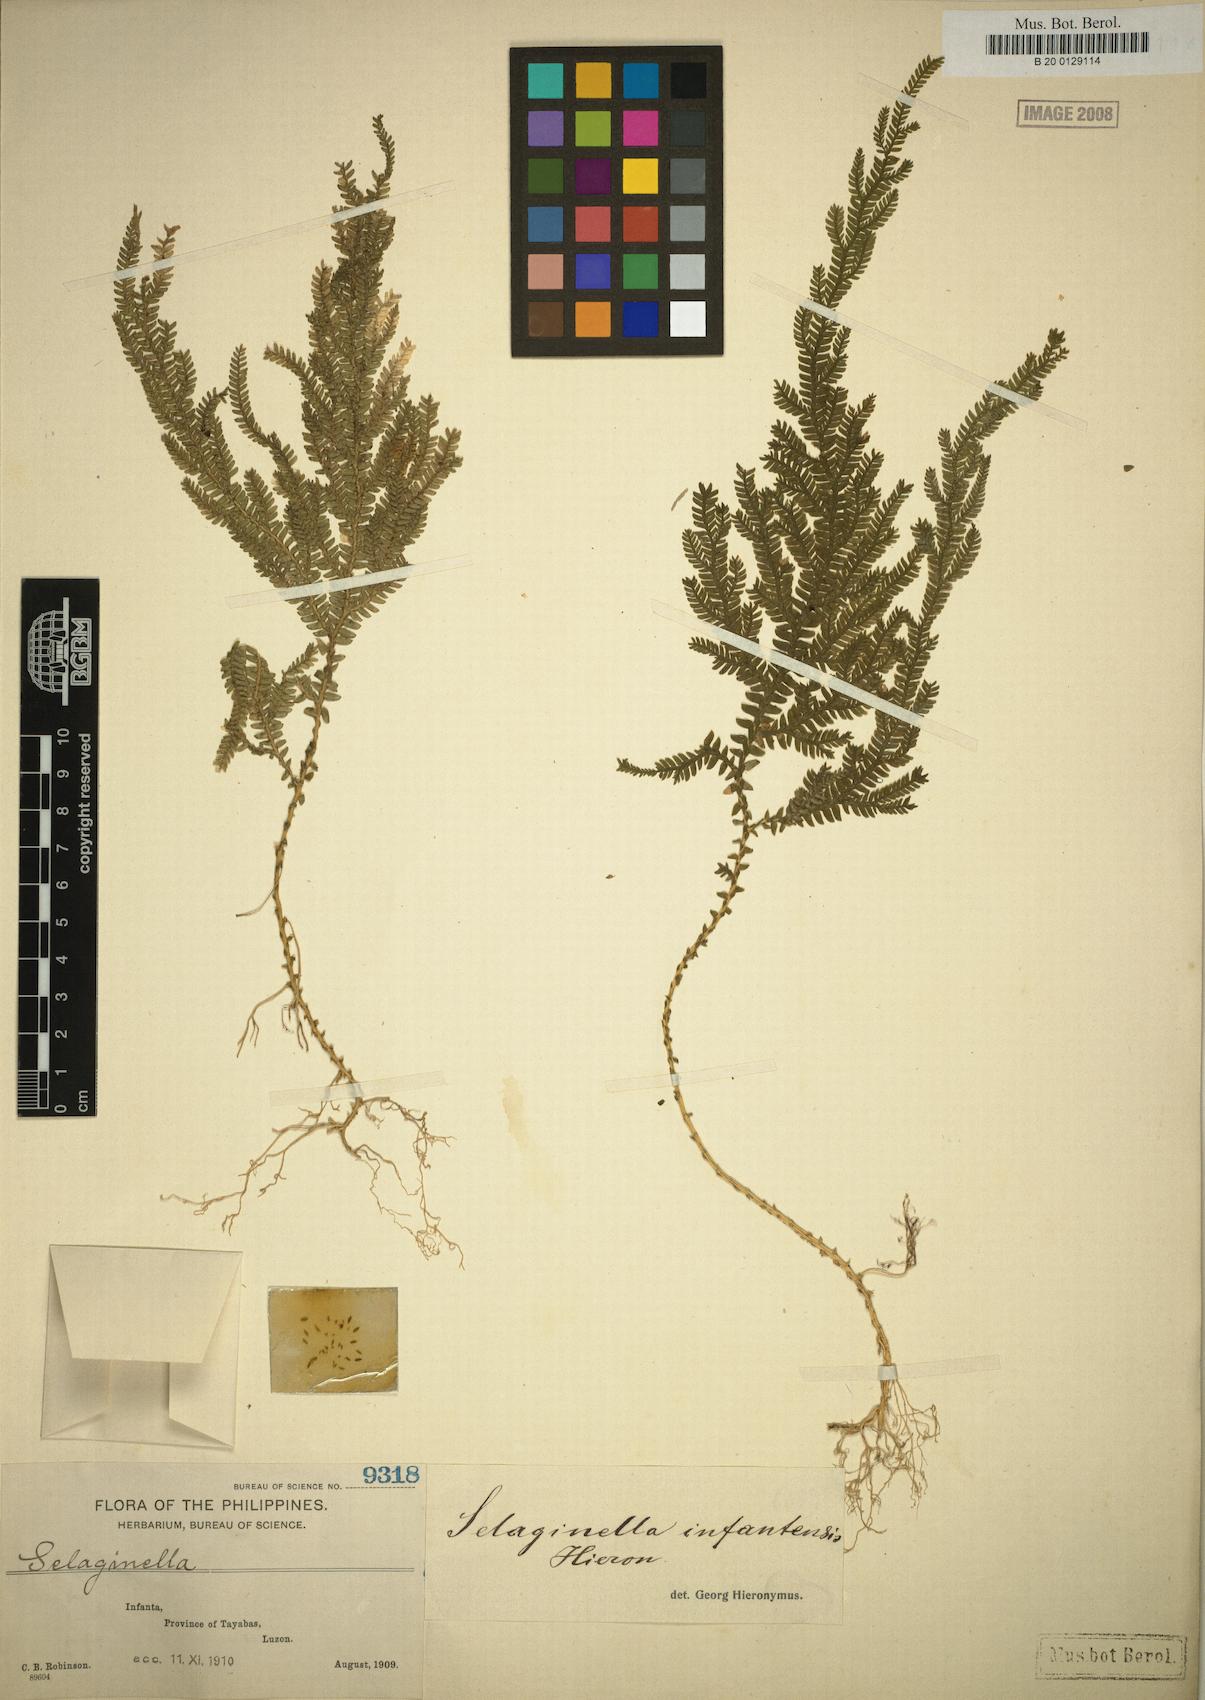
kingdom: Plantae
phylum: Tracheophyta
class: Lycopodiopsida
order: Selaginellales
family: Selaginellaceae
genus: Selaginella
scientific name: Selaginella jagorii
